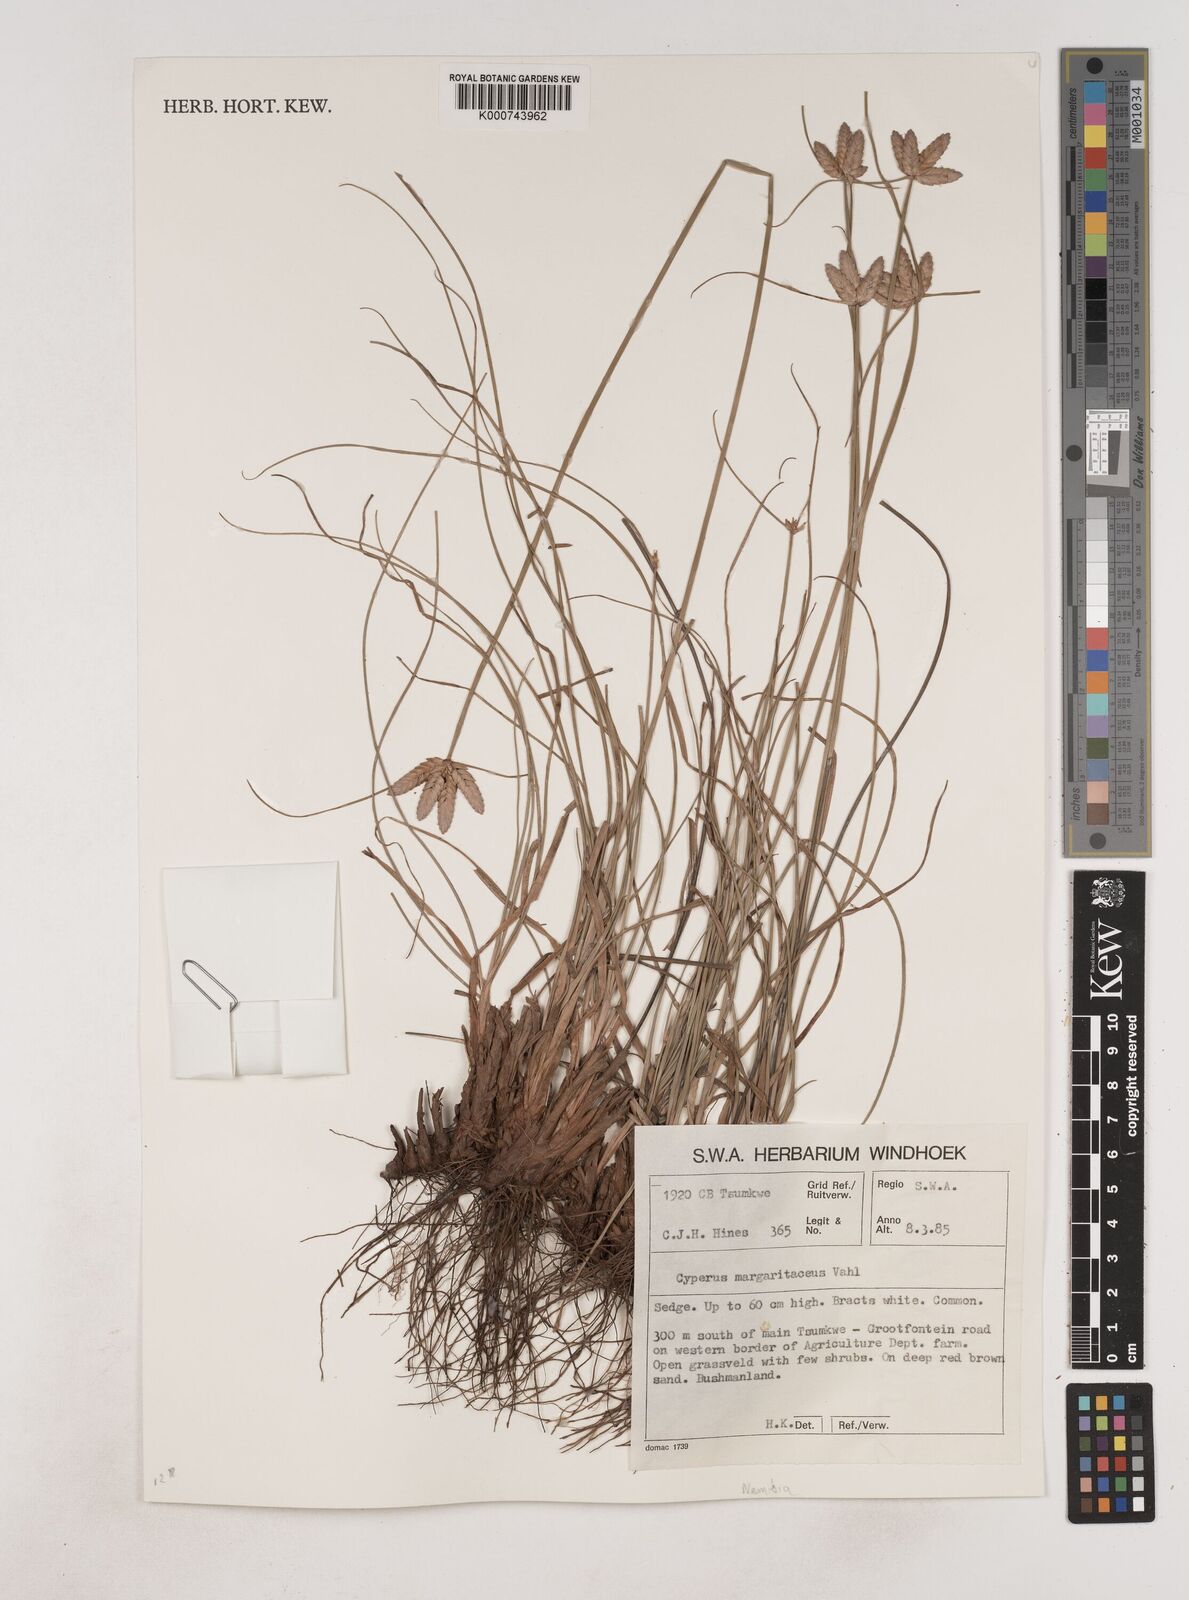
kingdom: Plantae
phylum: Tracheophyta
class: Liliopsida
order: Poales
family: Cyperaceae
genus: Cyperus
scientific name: Cyperus margaritaceus
